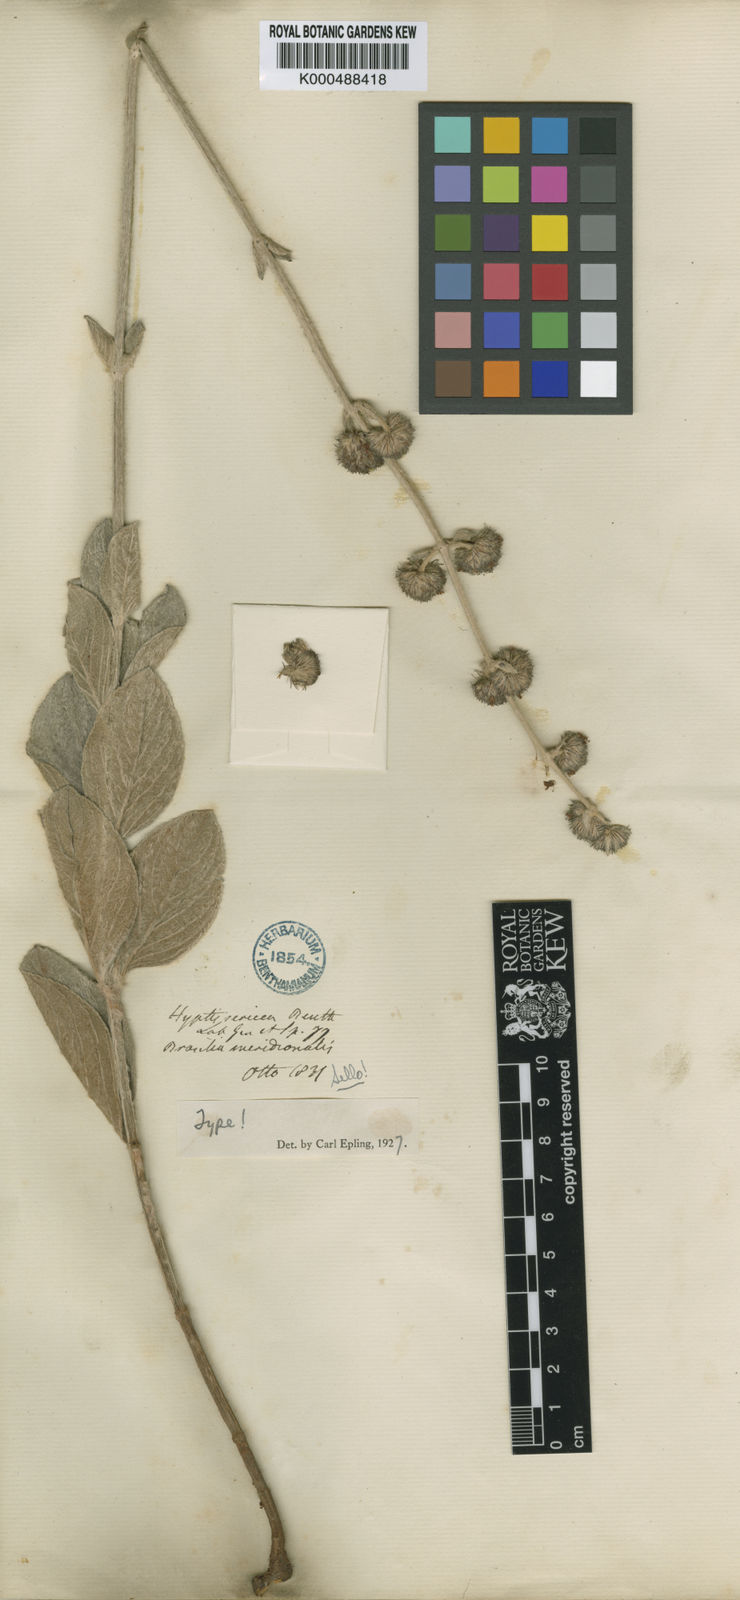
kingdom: Plantae
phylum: Tracheophyta
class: Magnoliopsida
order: Lamiales
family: Lamiaceae
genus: Hyptis
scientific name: Hyptis sericea
